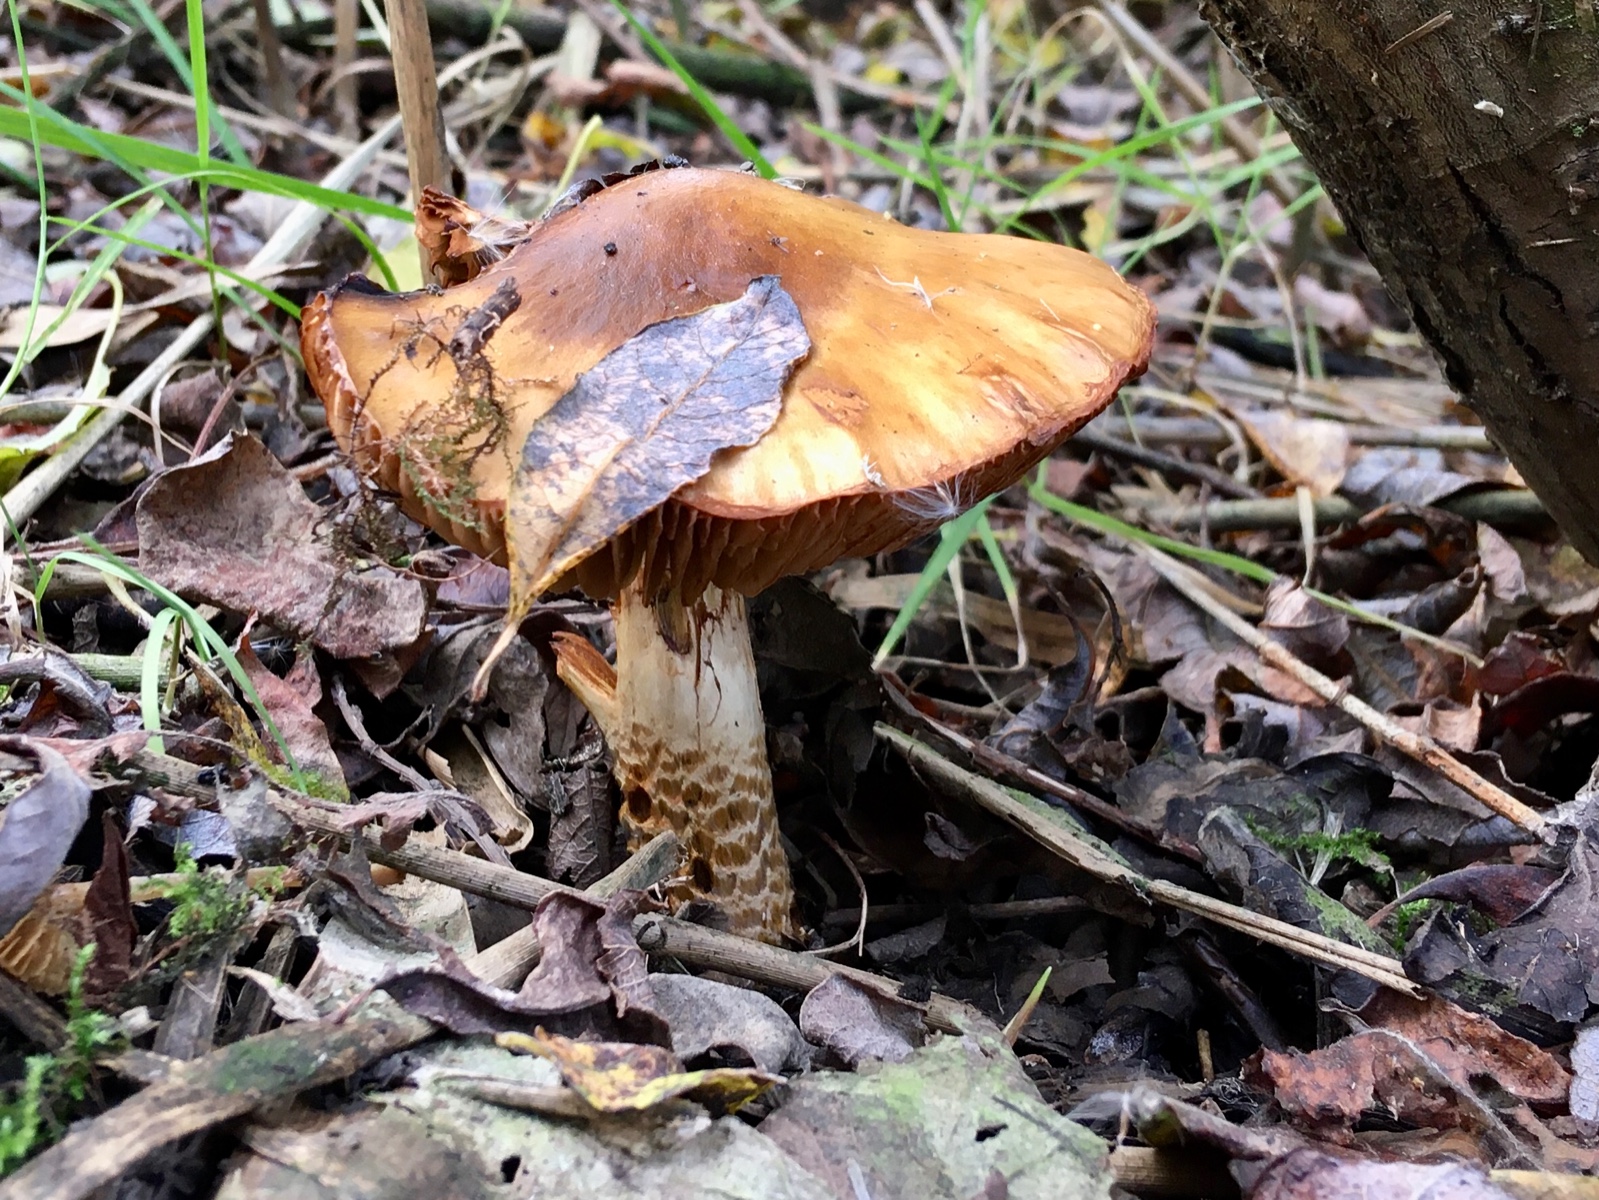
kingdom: Fungi
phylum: Basidiomycota
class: Agaricomycetes
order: Agaricales
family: Cortinariaceae
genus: Cortinarius
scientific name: Cortinarius trivialis
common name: brunslimet slørhat
